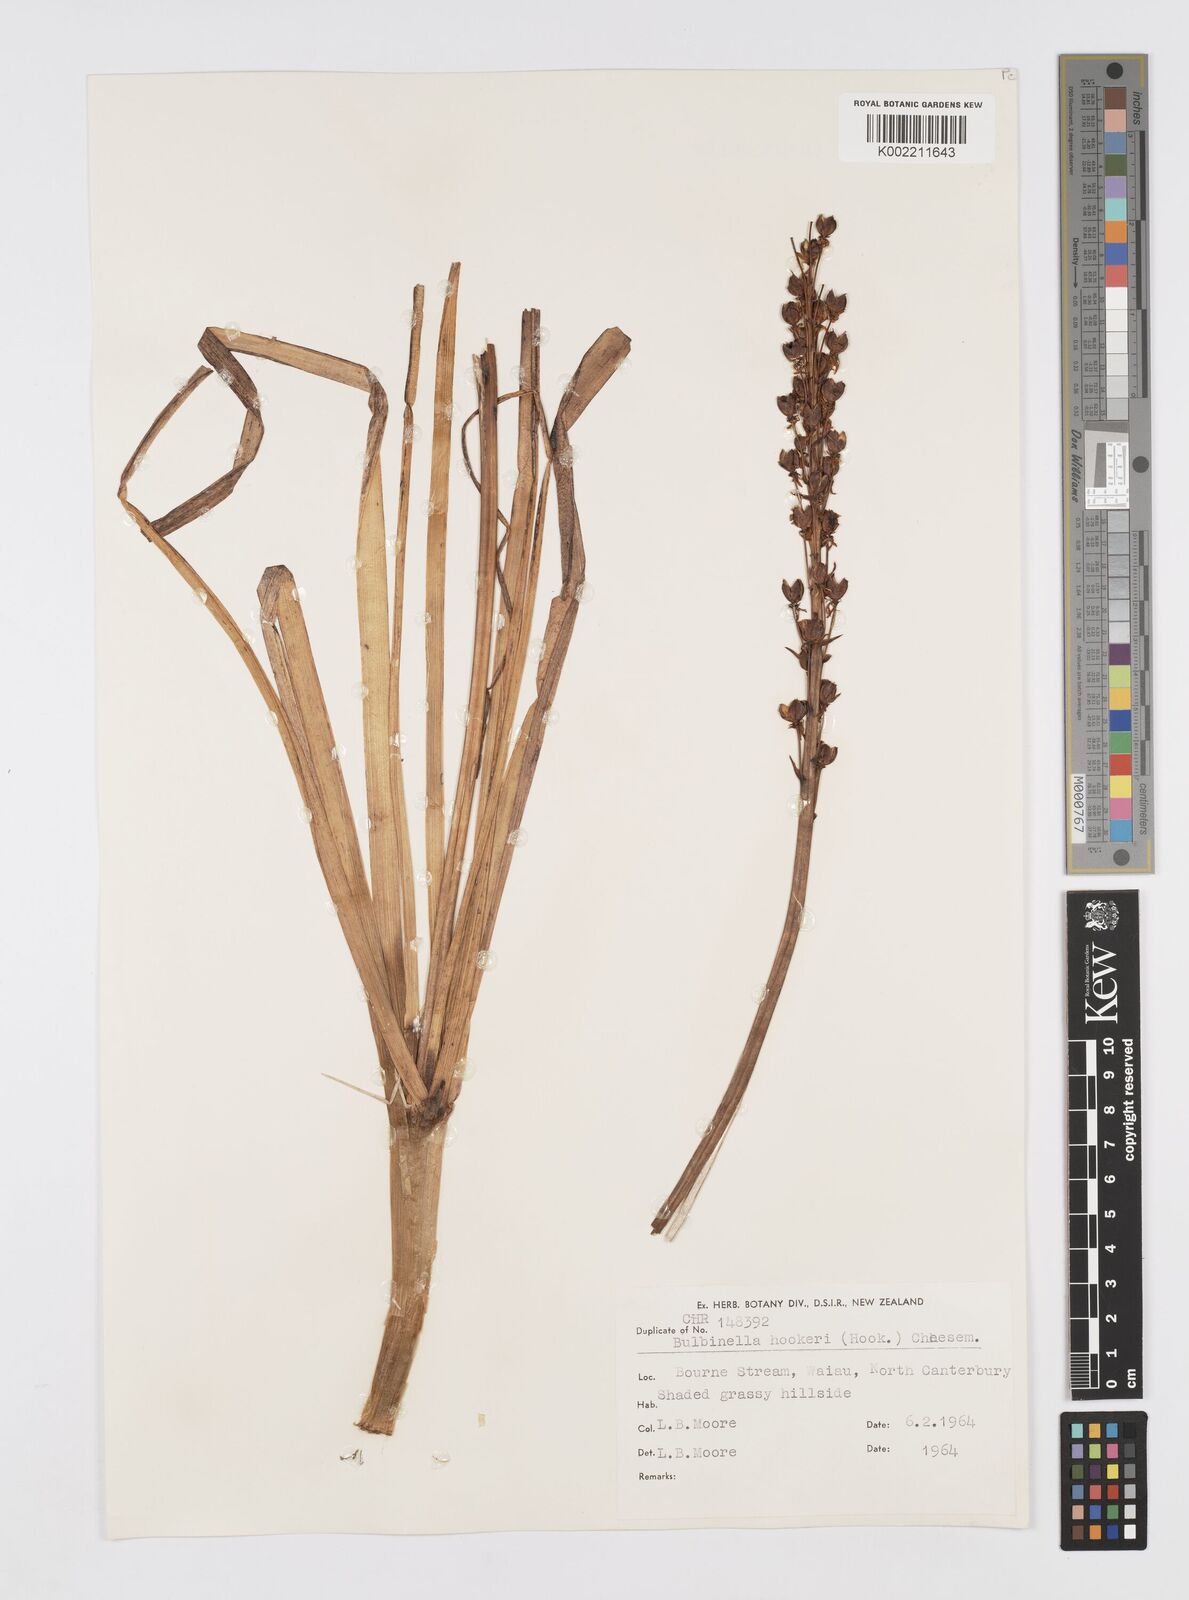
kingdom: Plantae
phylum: Tracheophyta
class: Liliopsida
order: Asparagales
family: Asphodelaceae
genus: Bulbinella
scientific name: Bulbinella hookeri
